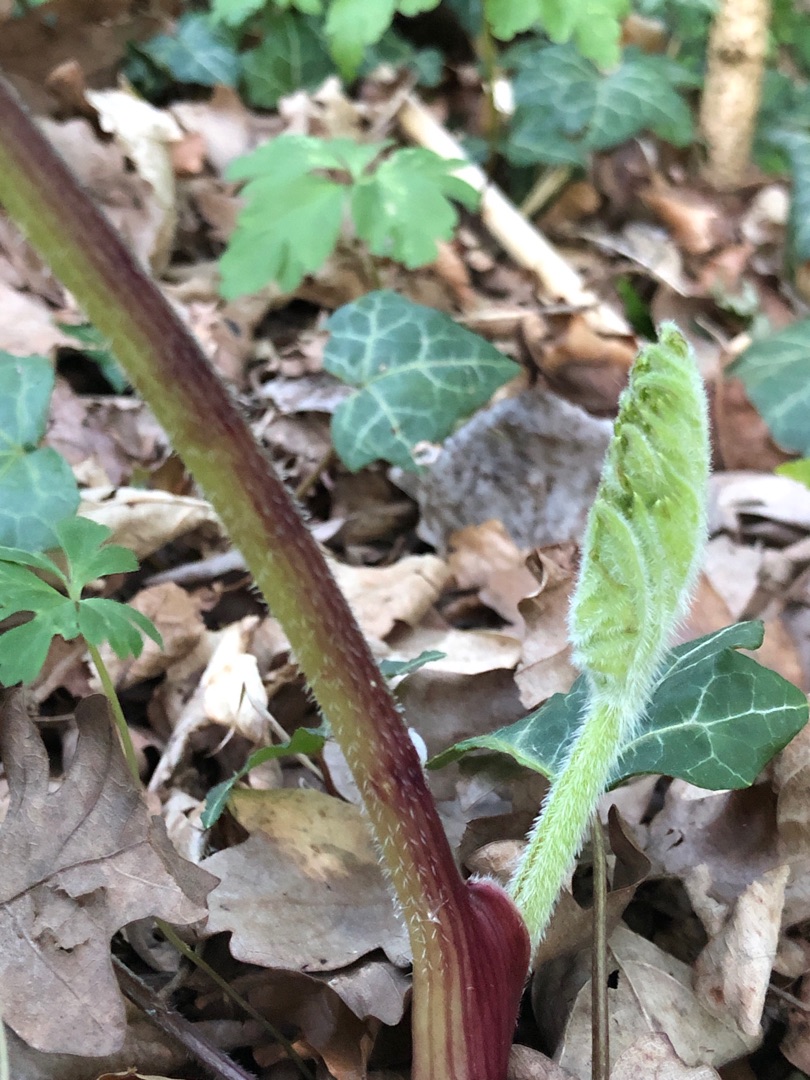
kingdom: Plantae
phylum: Tracheophyta
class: Magnoliopsida
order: Apiales
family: Apiaceae
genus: Heracleum
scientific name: Heracleum sphondylium
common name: Almindelig bjørneklo
